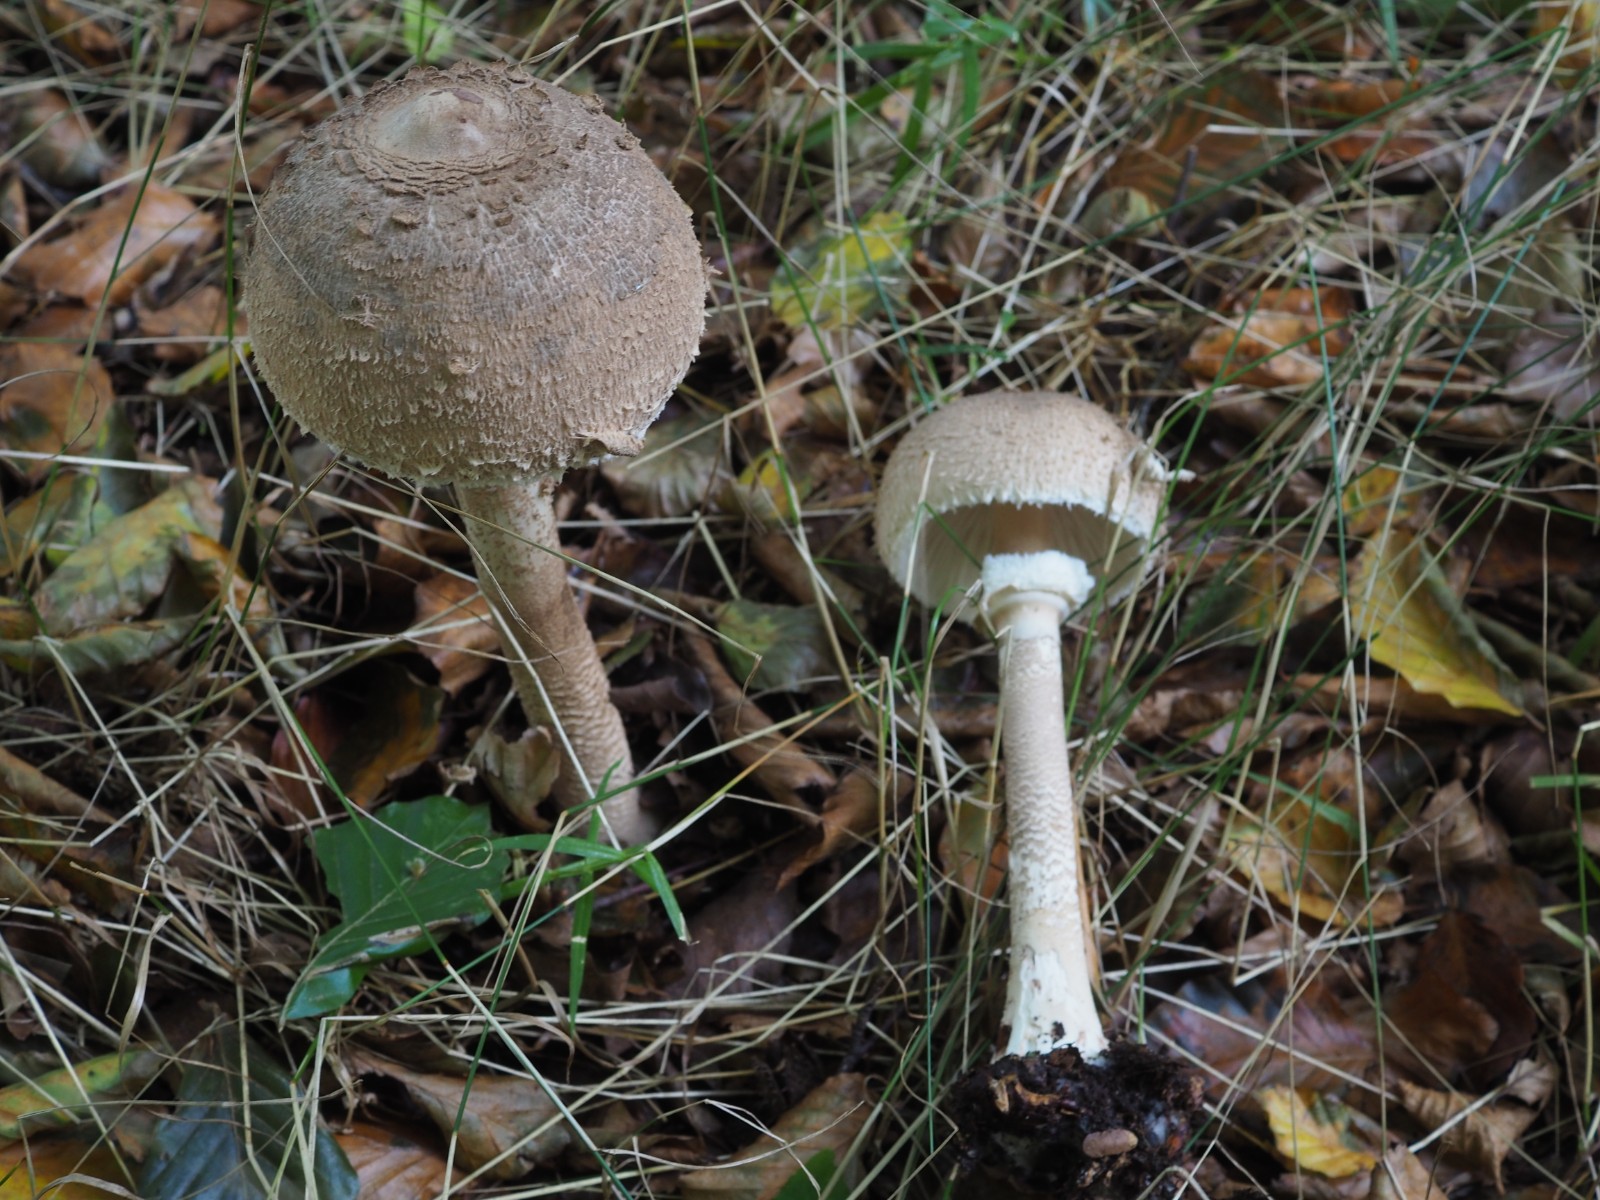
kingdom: Fungi
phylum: Basidiomycota
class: Agaricomycetes
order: Agaricales
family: Agaricaceae
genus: Macrolepiota
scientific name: Macrolepiota mastoidea
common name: puklet kæmpeparasolhat
